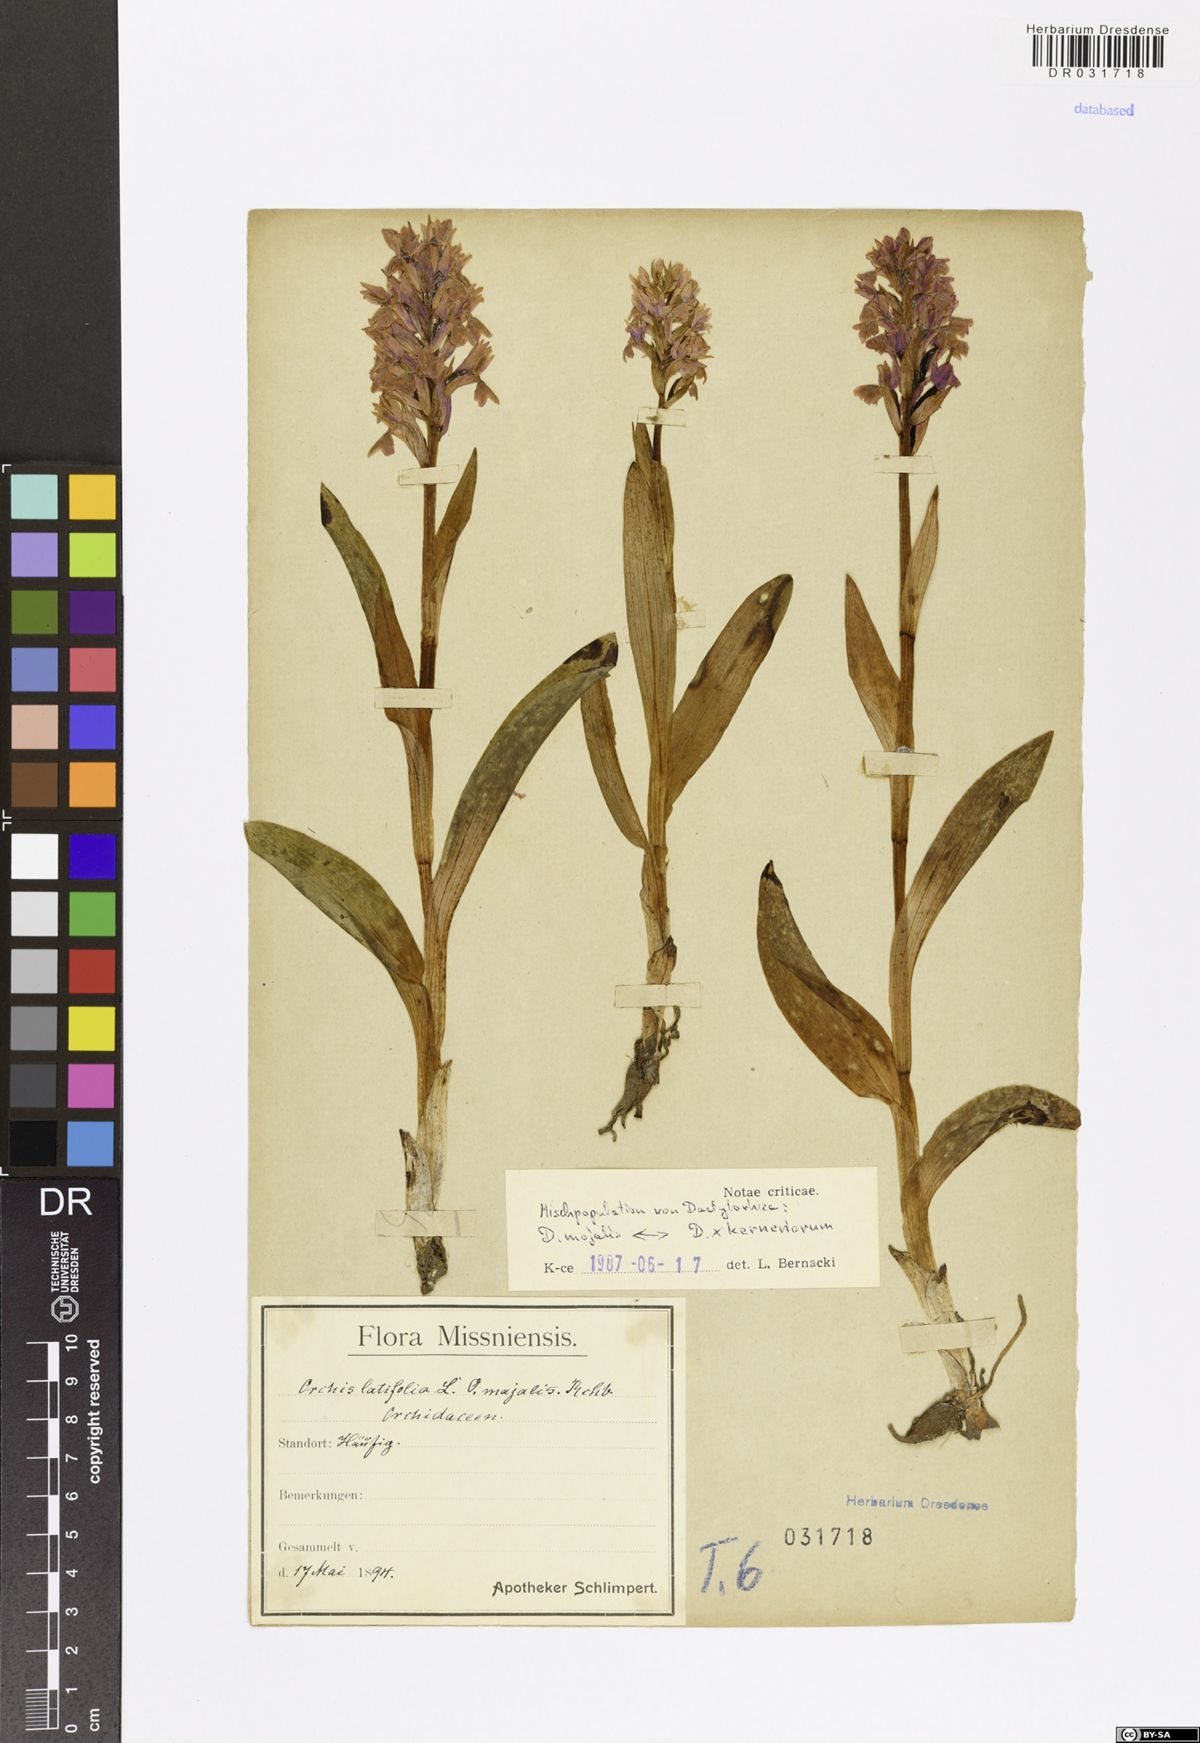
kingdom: Plantae
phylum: Tracheophyta
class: Liliopsida
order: Asparagales
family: Orchidaceae
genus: Dactylorhiza
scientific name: Dactylorhiza
